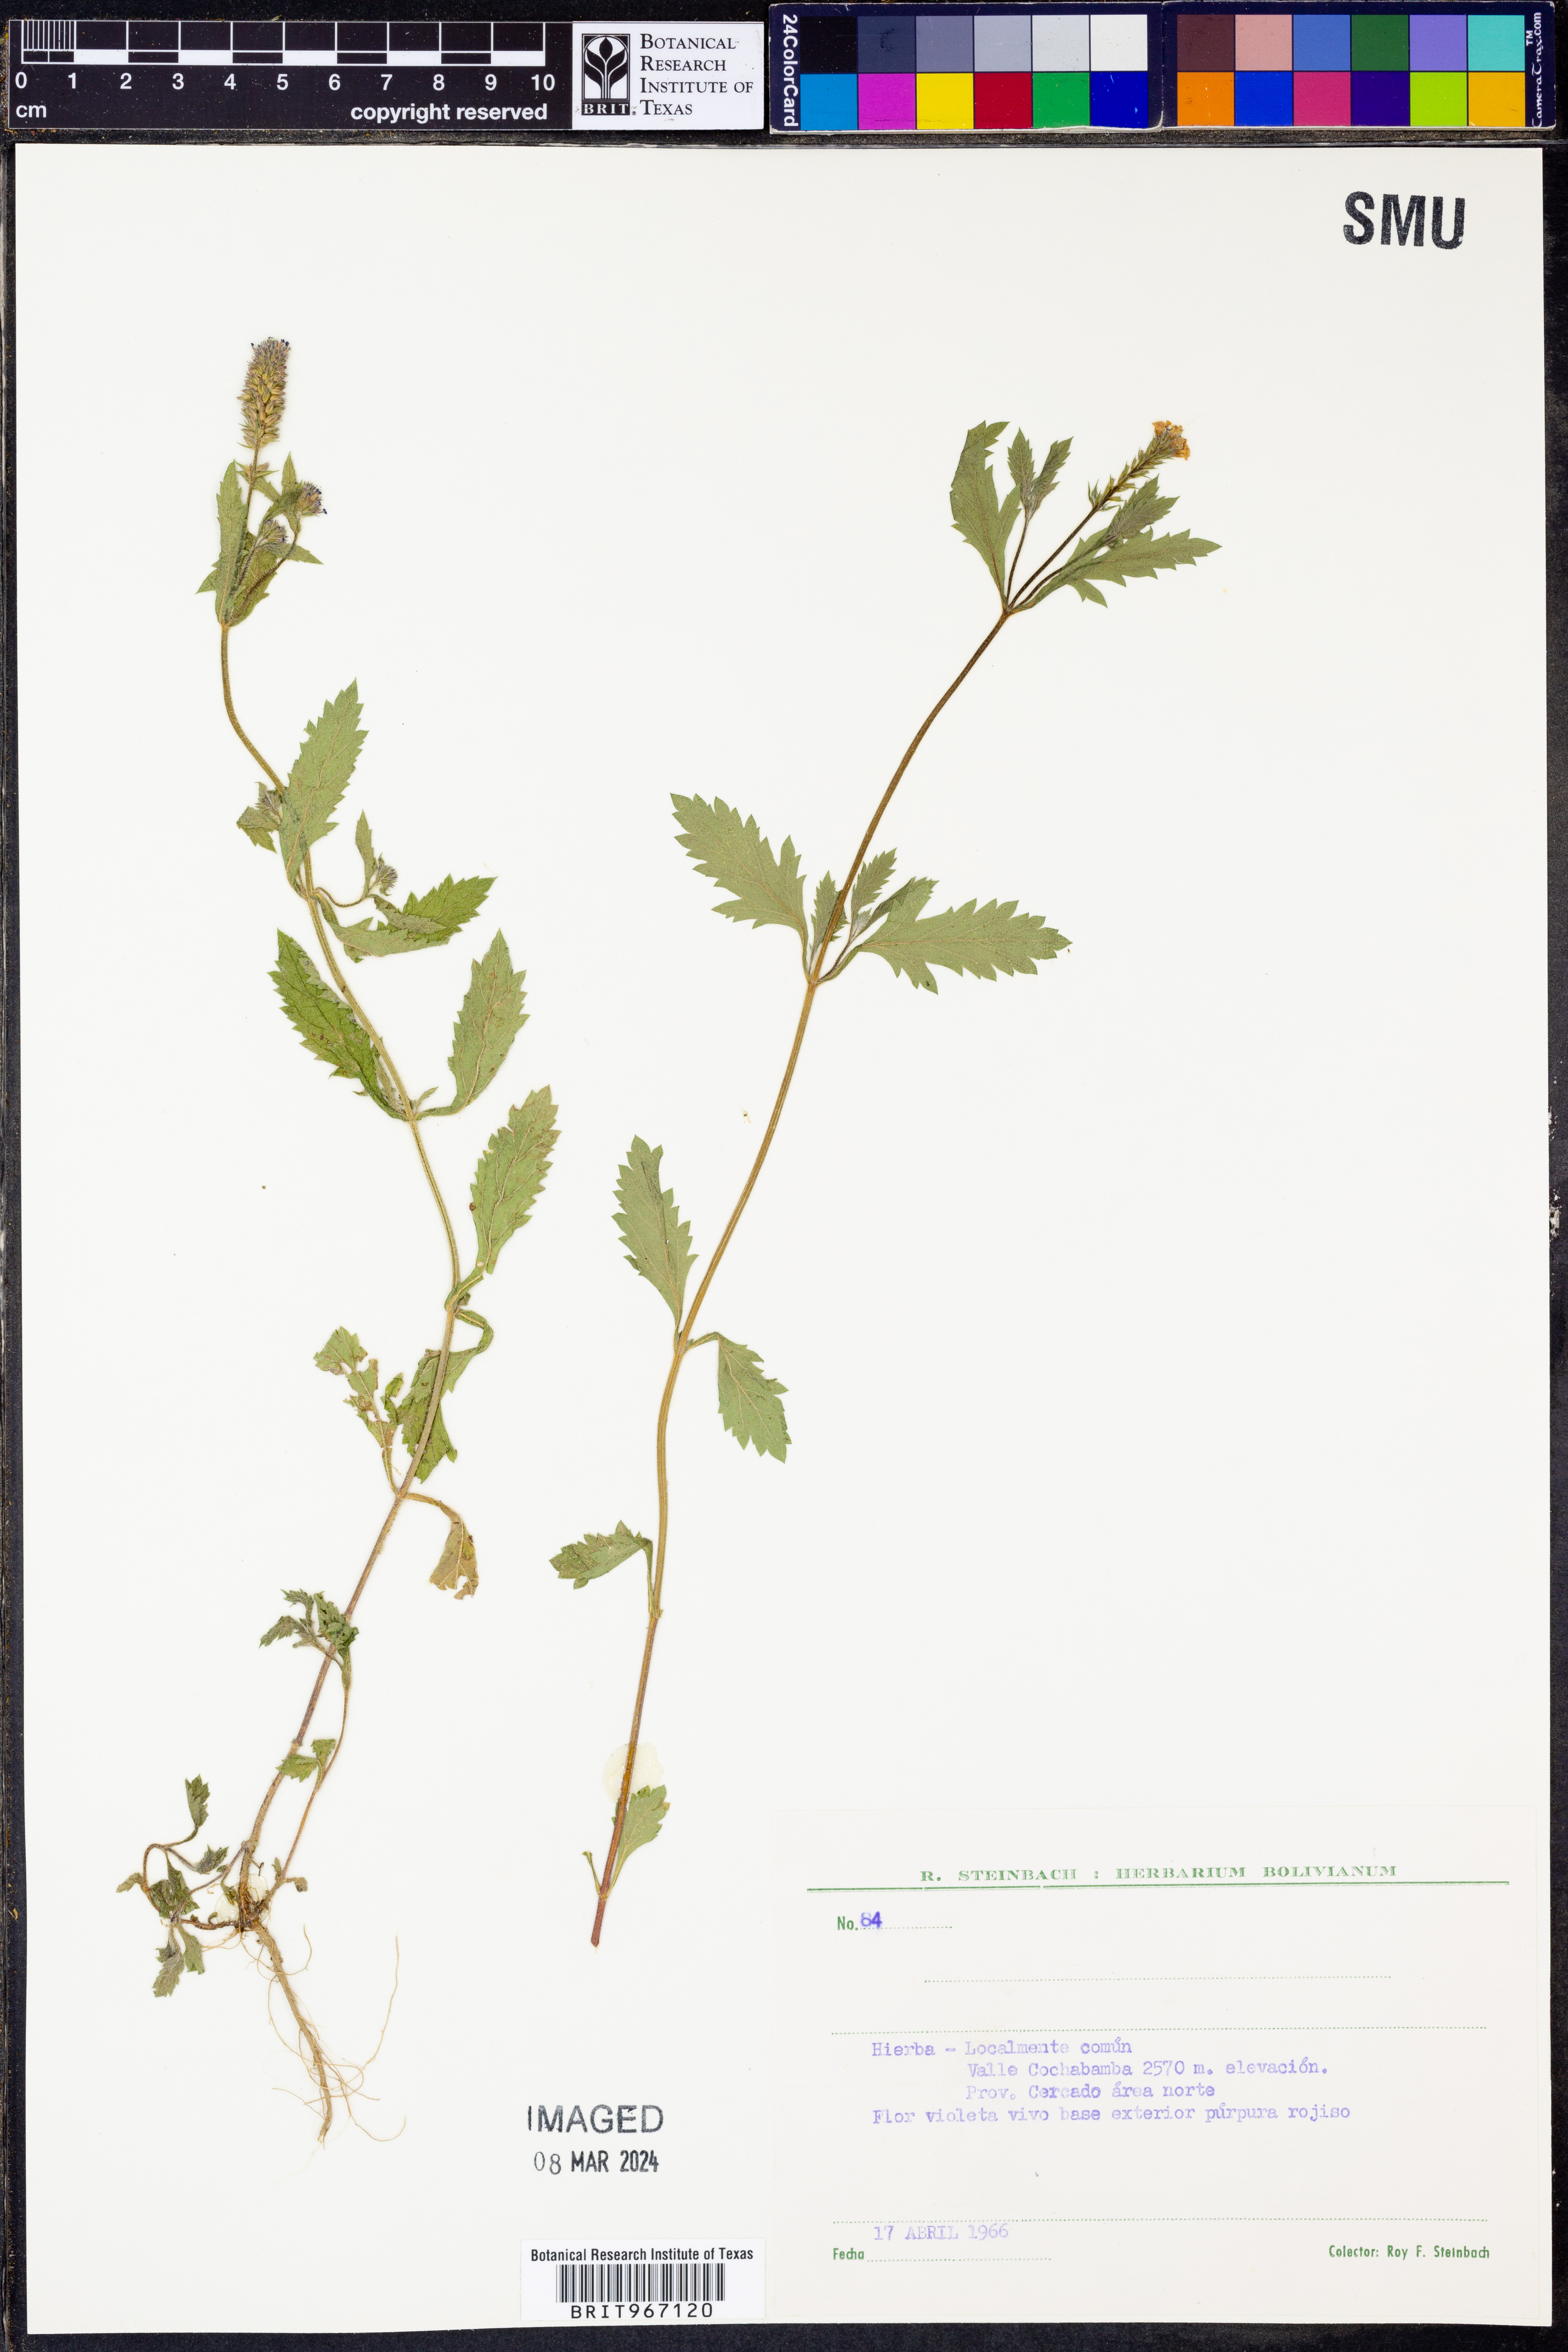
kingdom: Plantae
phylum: Tracheophyta
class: Magnoliopsida
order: Lamiales
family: Verbenaceae
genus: Verbena
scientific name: Verbena
